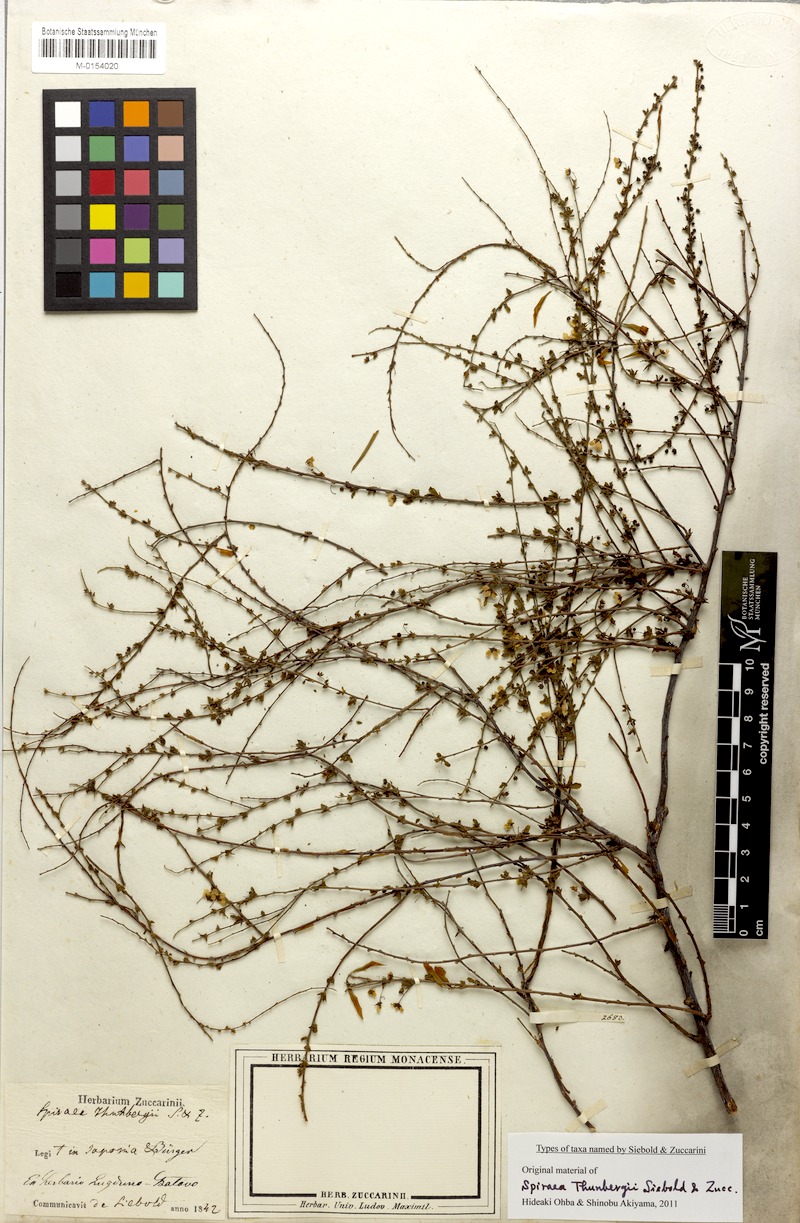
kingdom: Plantae
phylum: Tracheophyta
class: Magnoliopsida
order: Rosales
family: Rosaceae
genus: Spiraea
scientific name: Spiraea thunbergii
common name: Thunberg's meadowsweet
